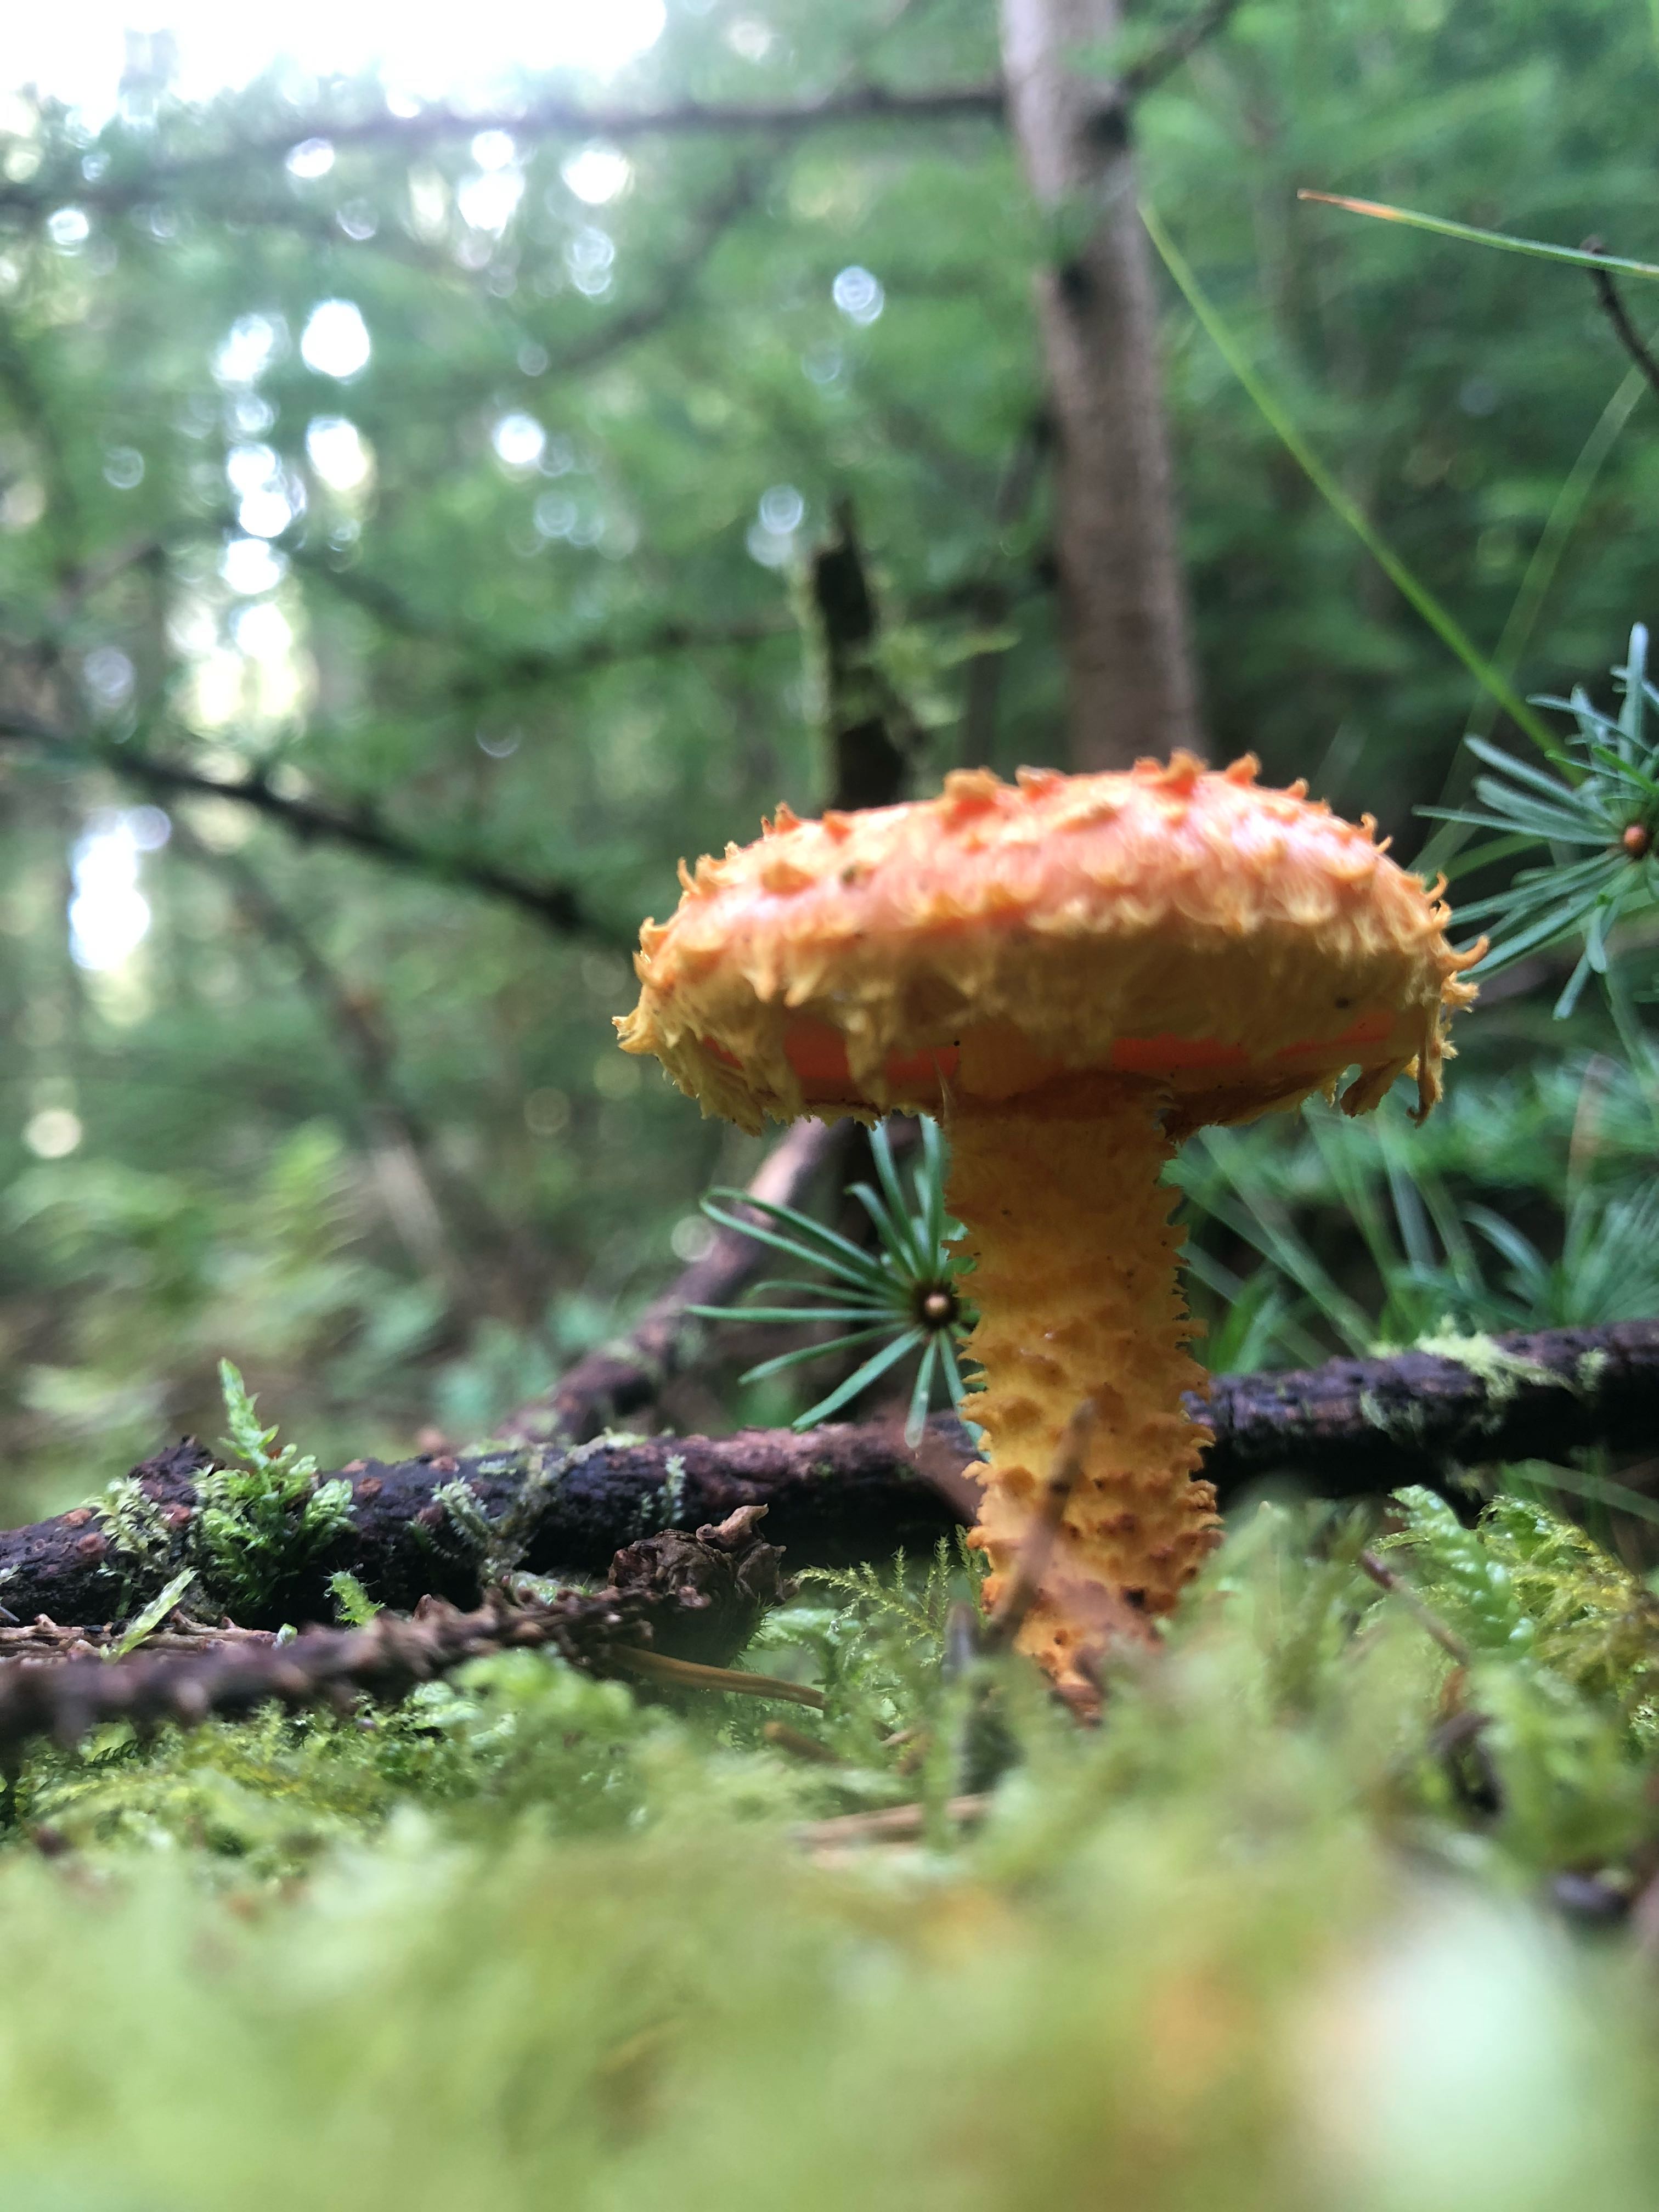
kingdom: Fungi
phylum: Basidiomycota
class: Agaricomycetes
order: Agaricales
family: Strophariaceae
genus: Pholiota
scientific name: Pholiota flammans
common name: flamme-skælhat
